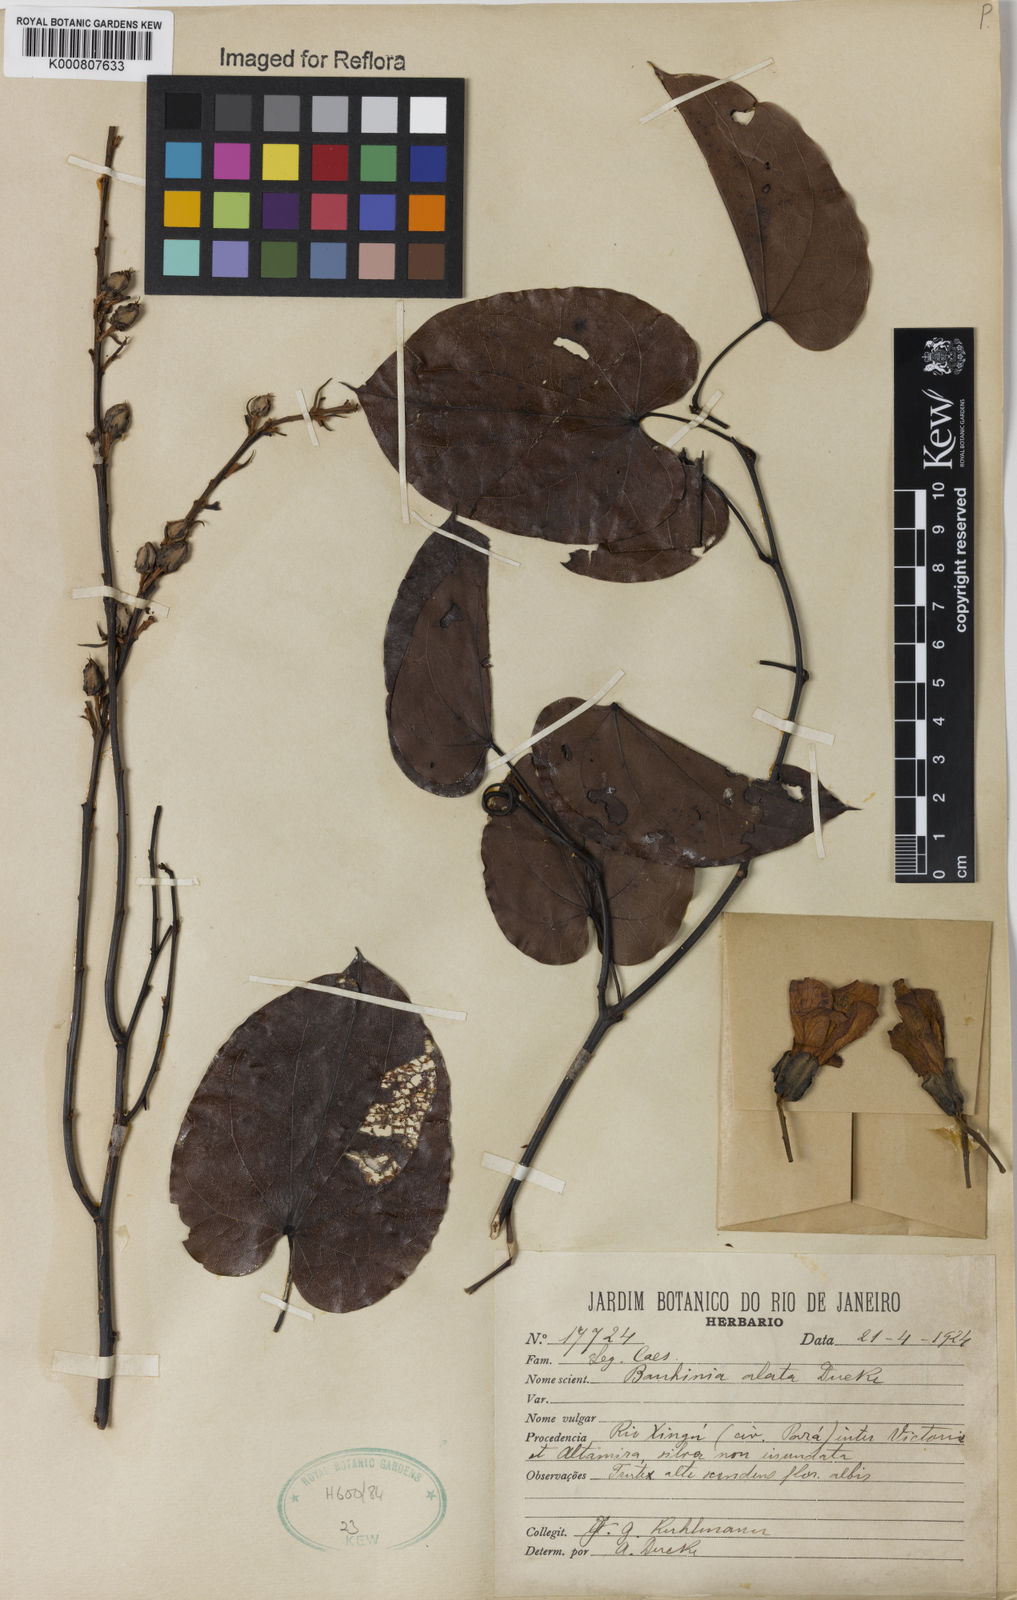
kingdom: Plantae
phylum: Tracheophyta
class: Magnoliopsida
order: Fabales
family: Fabaceae
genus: Schnella
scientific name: Schnella alata
